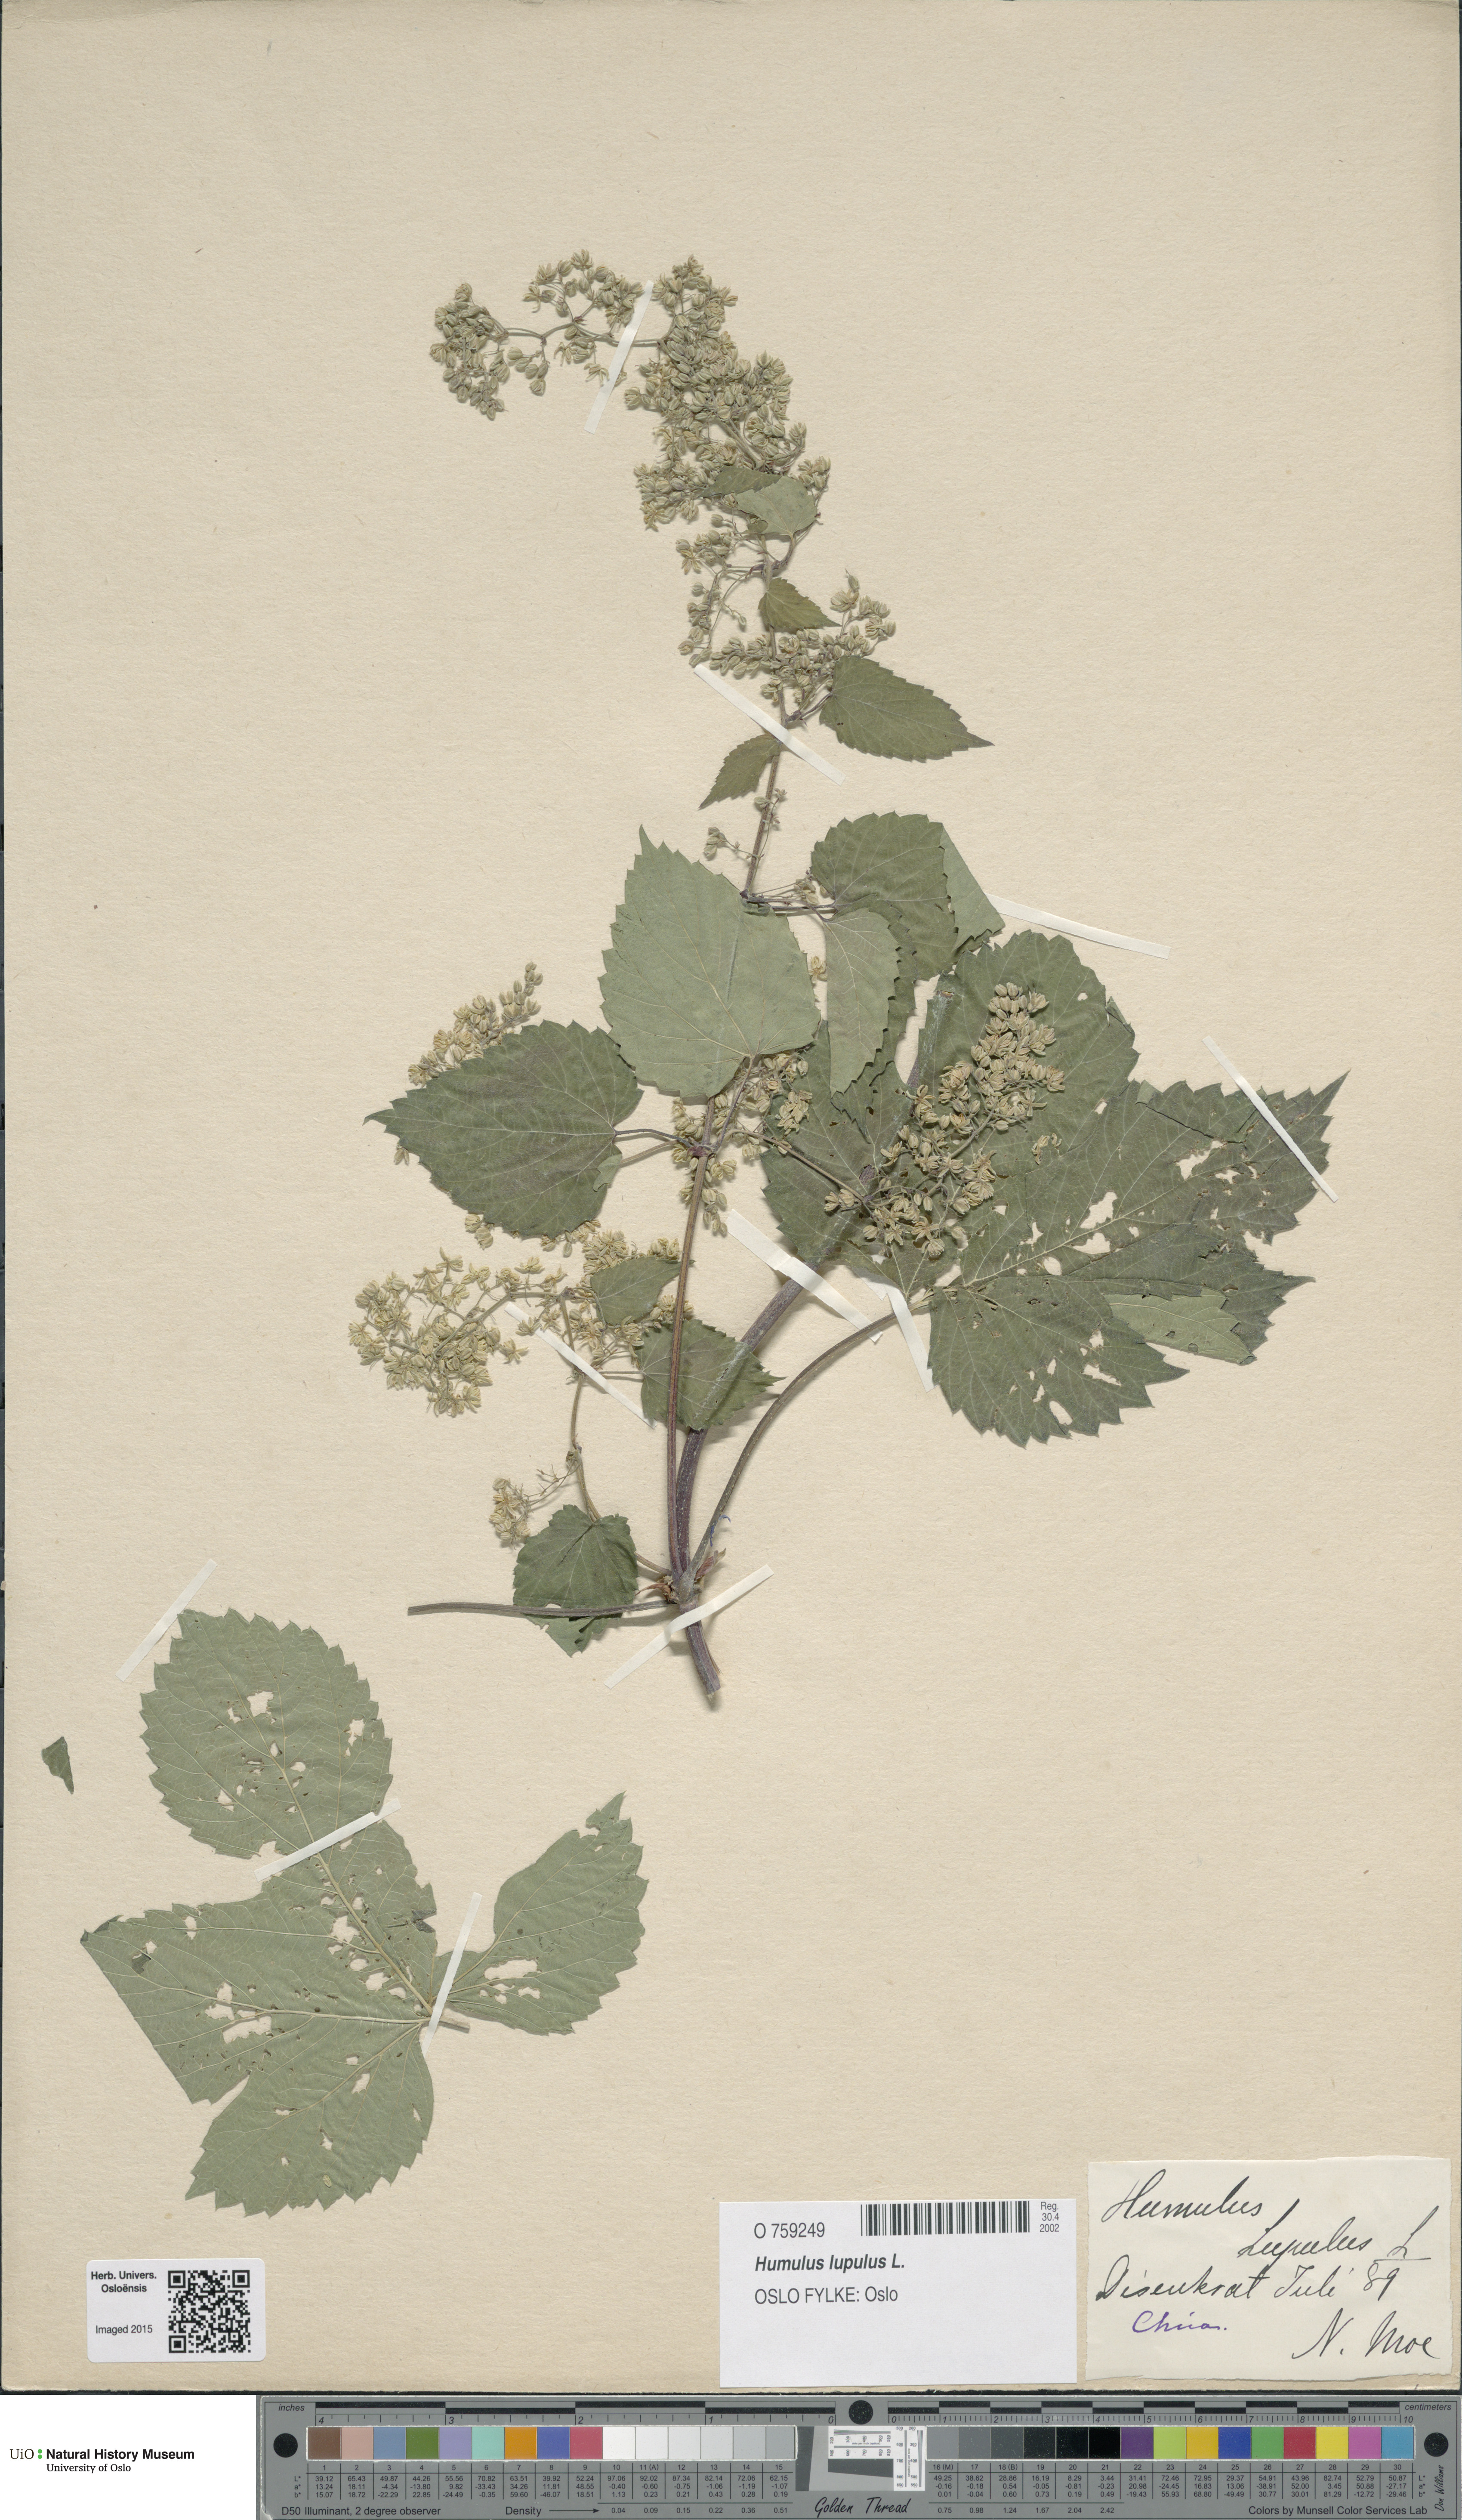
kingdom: Plantae
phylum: Tracheophyta
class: Magnoliopsida
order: Rosales
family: Cannabaceae
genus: Humulus
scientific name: Humulus lupulus
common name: Hop
